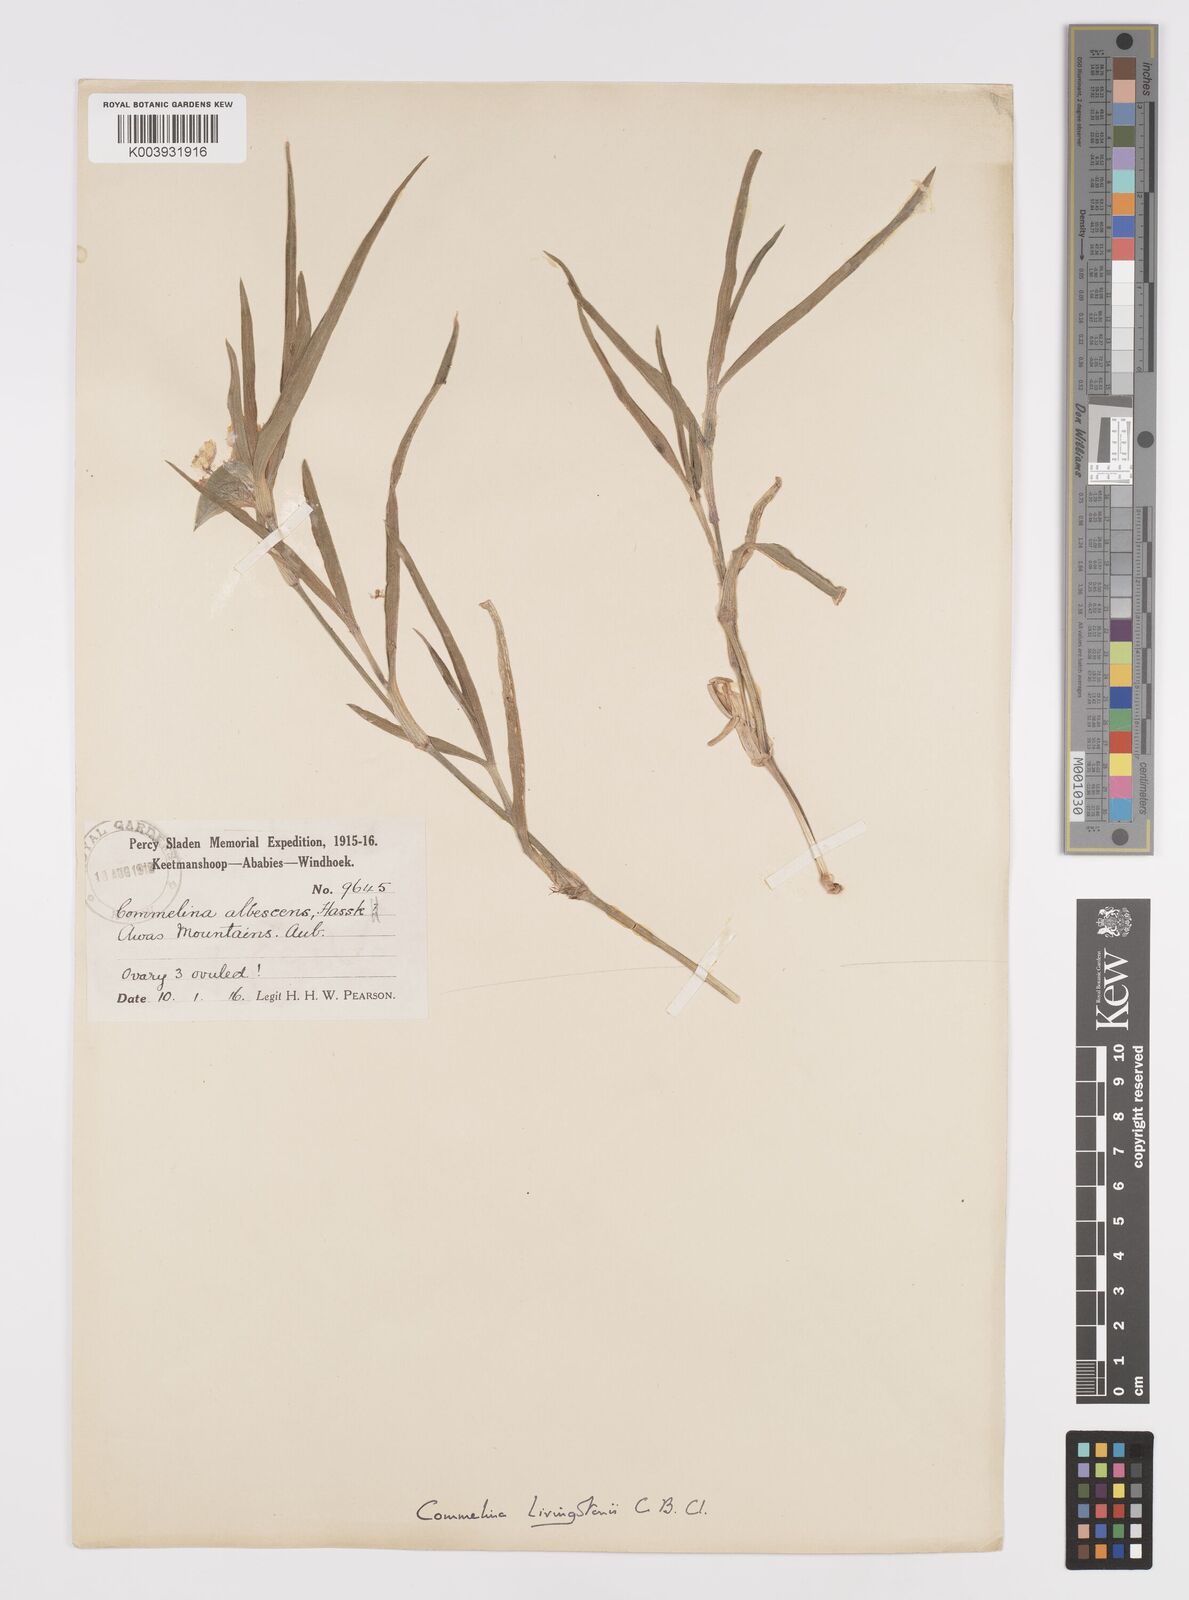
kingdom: Plantae
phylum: Tracheophyta
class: Liliopsida
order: Commelinales
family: Commelinaceae
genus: Commelina
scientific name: Commelina erecta
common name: Blousel blommetjie
